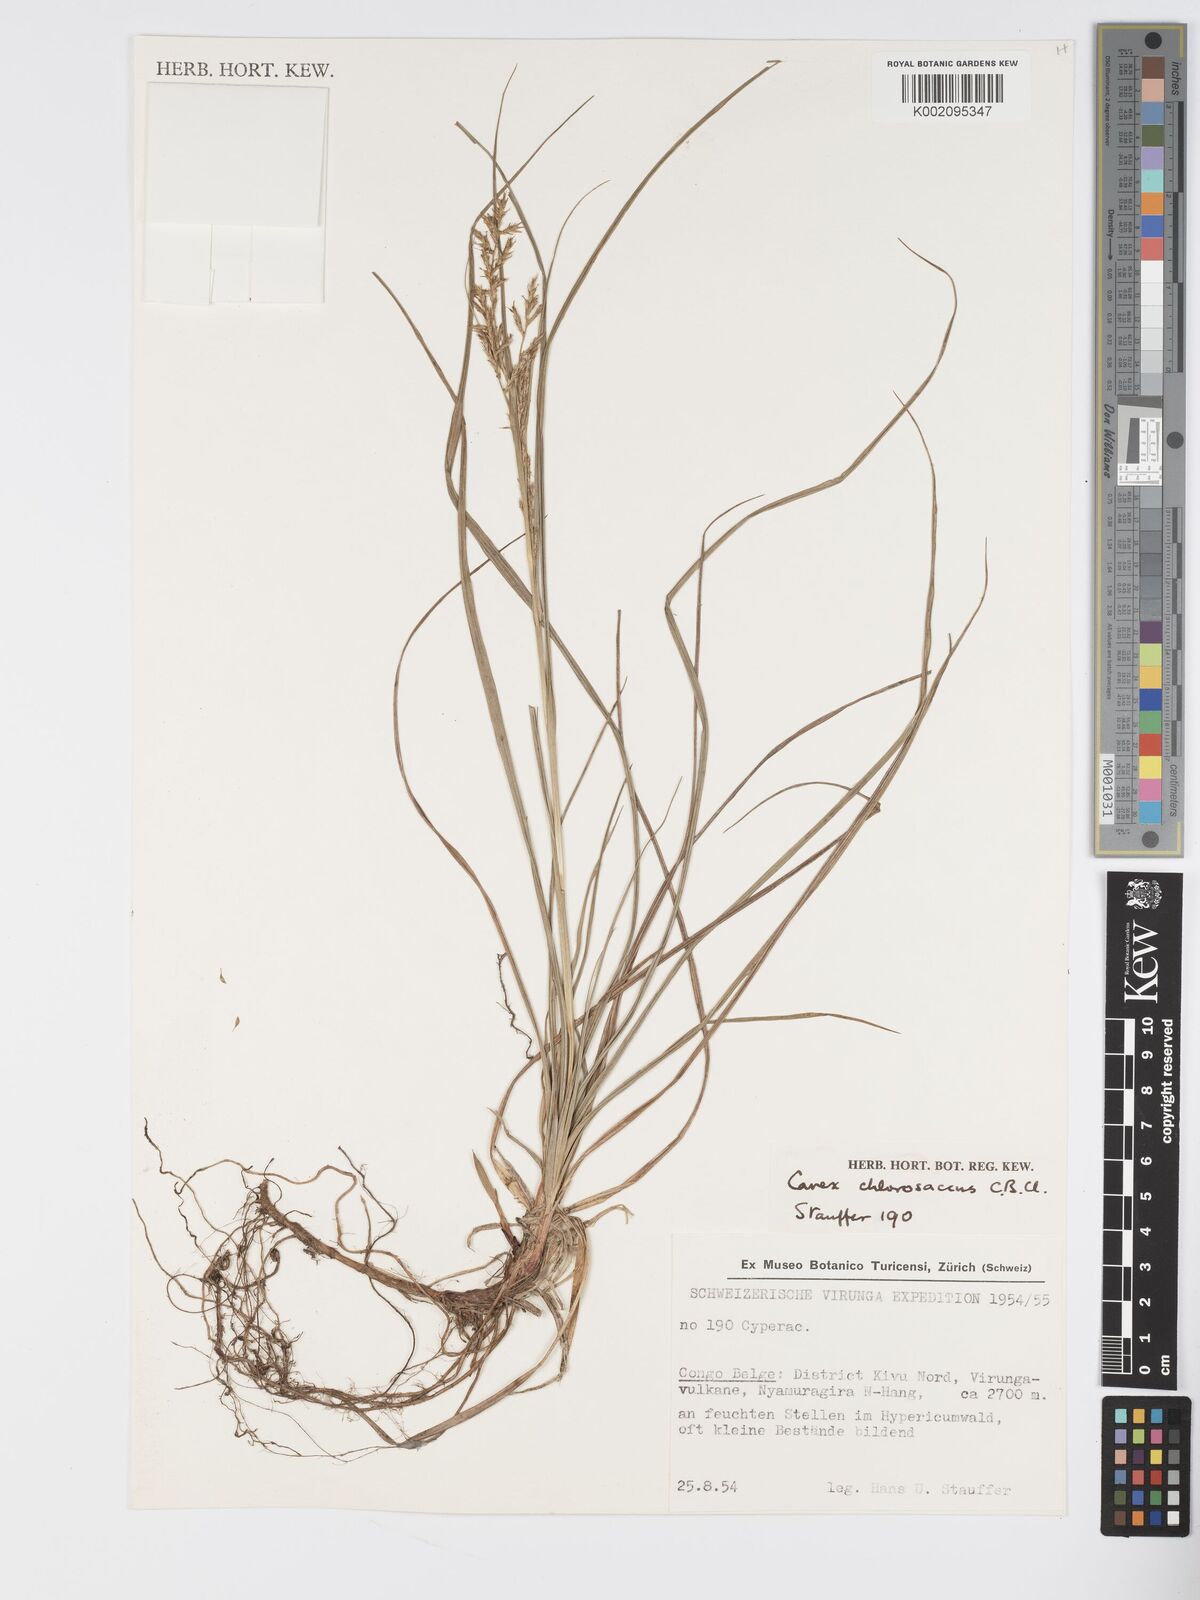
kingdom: Plantae
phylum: Tracheophyta
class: Liliopsida
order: Poales
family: Cyperaceae
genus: Carex
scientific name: Carex chlorosaccus
